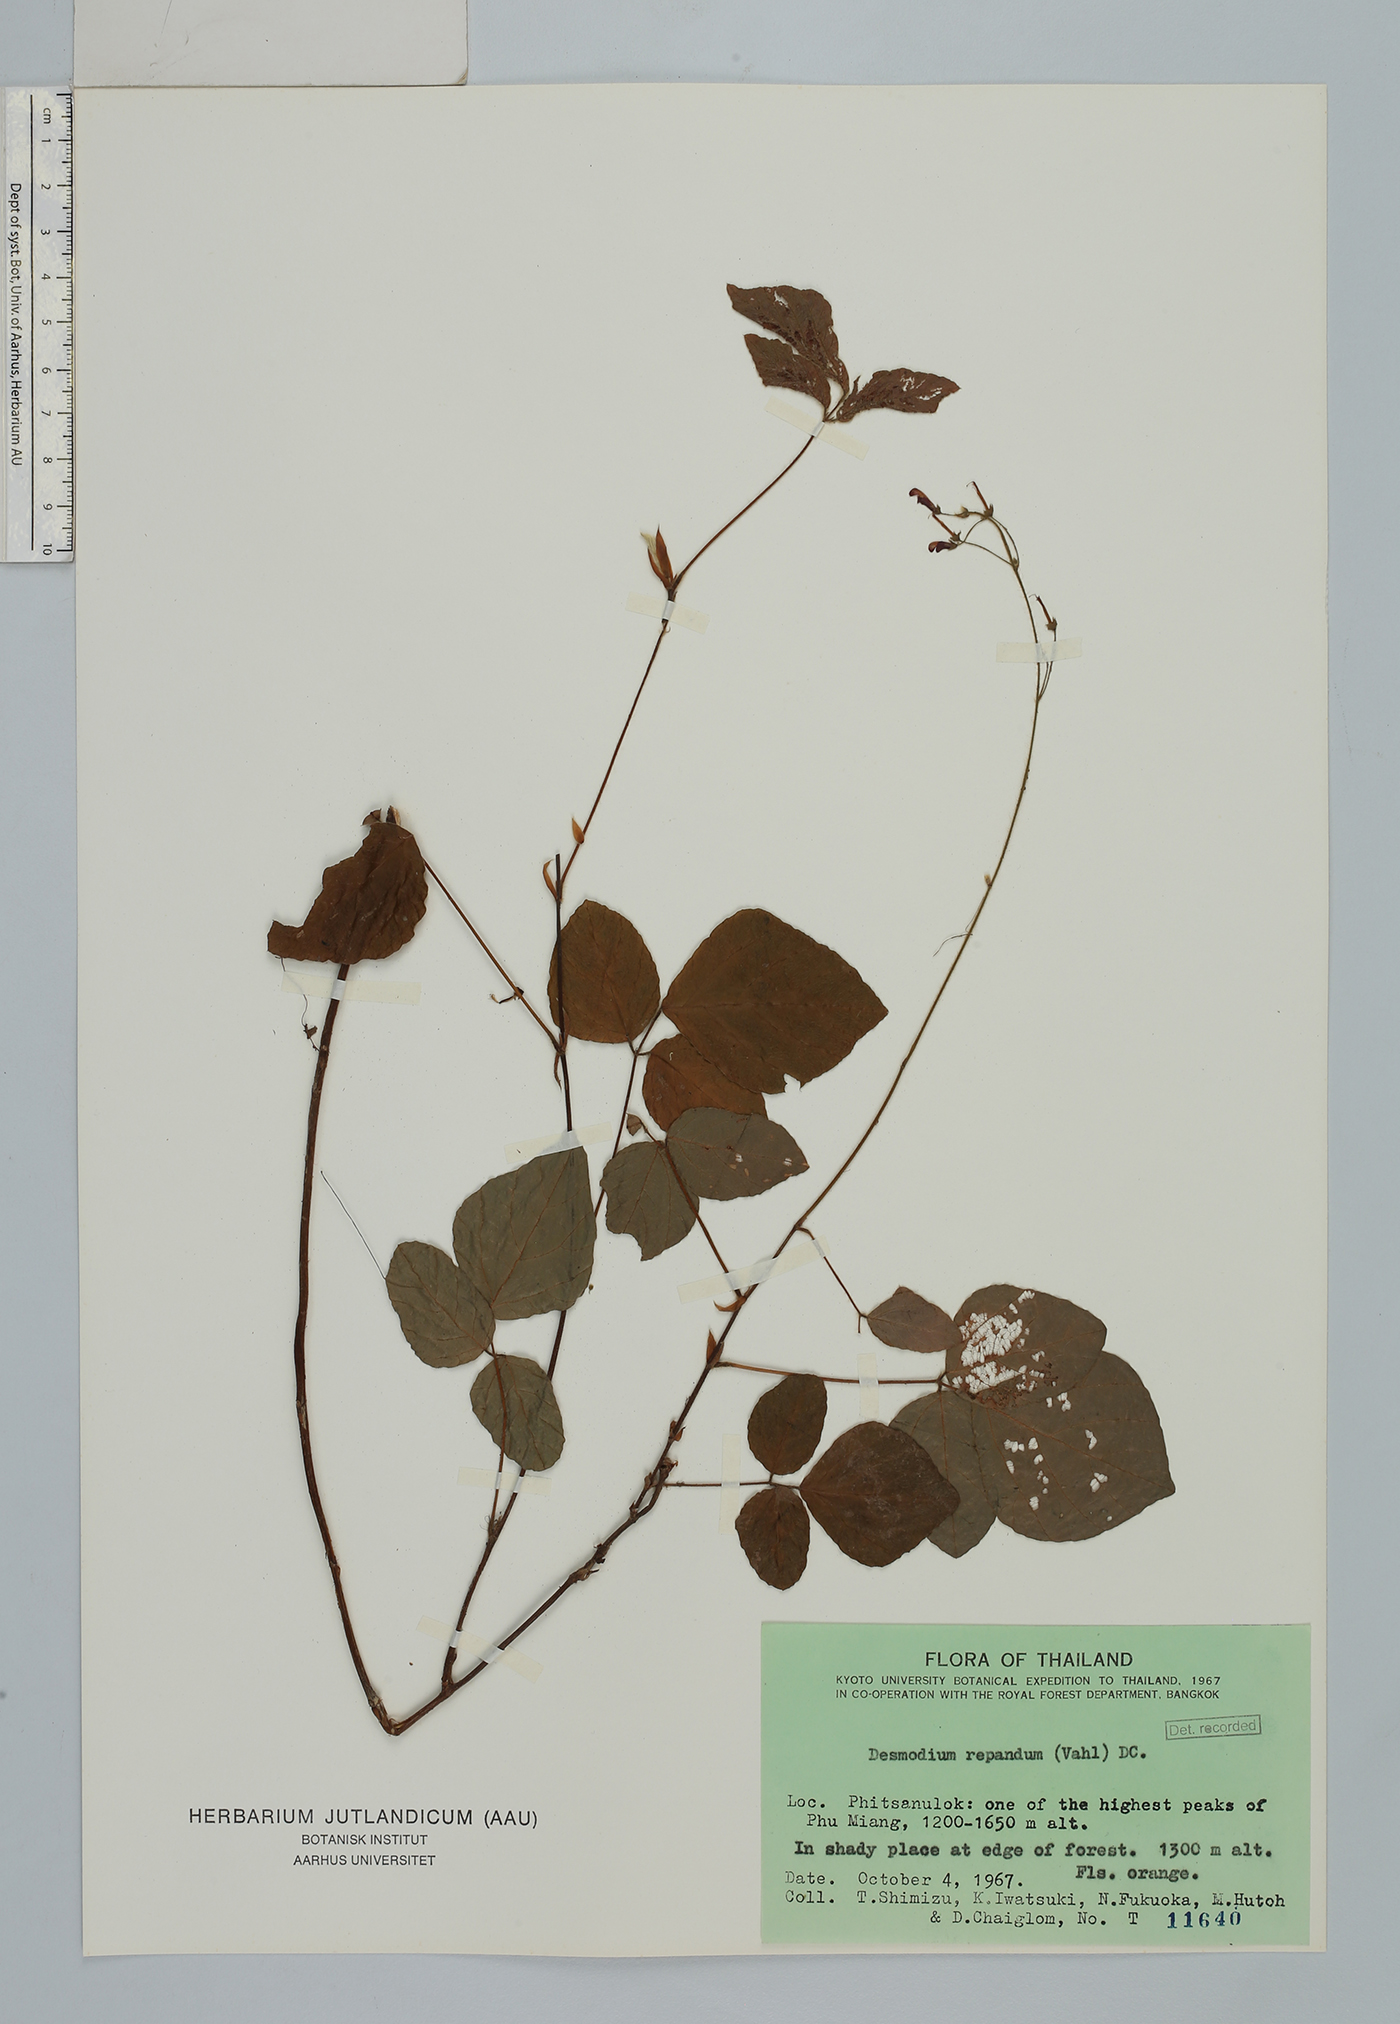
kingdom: Plantae
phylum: Tracheophyta
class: Magnoliopsida
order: Fabales
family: Fabaceae
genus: Hylodesmum
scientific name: Hylodesmum repandum
